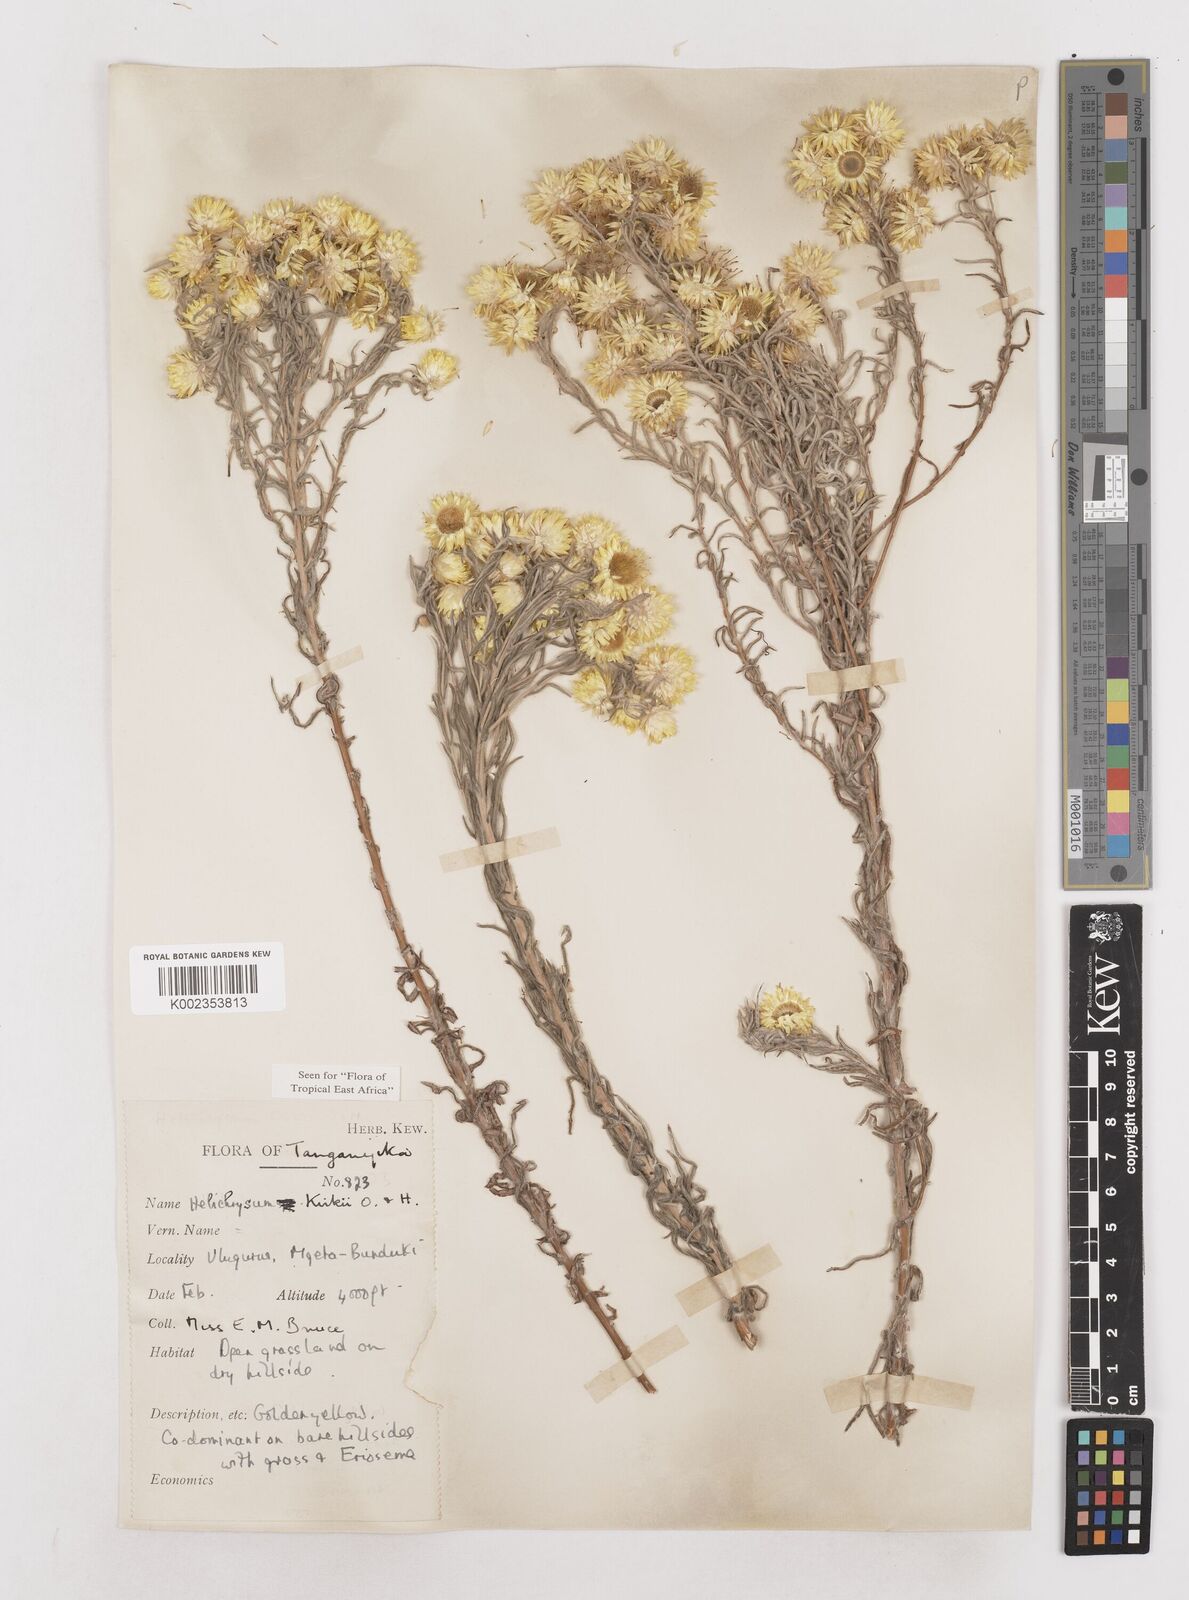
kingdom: Plantae
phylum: Tracheophyta
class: Magnoliopsida
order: Asterales
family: Asteraceae
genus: Helichrysum
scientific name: Helichrysum kirkii
